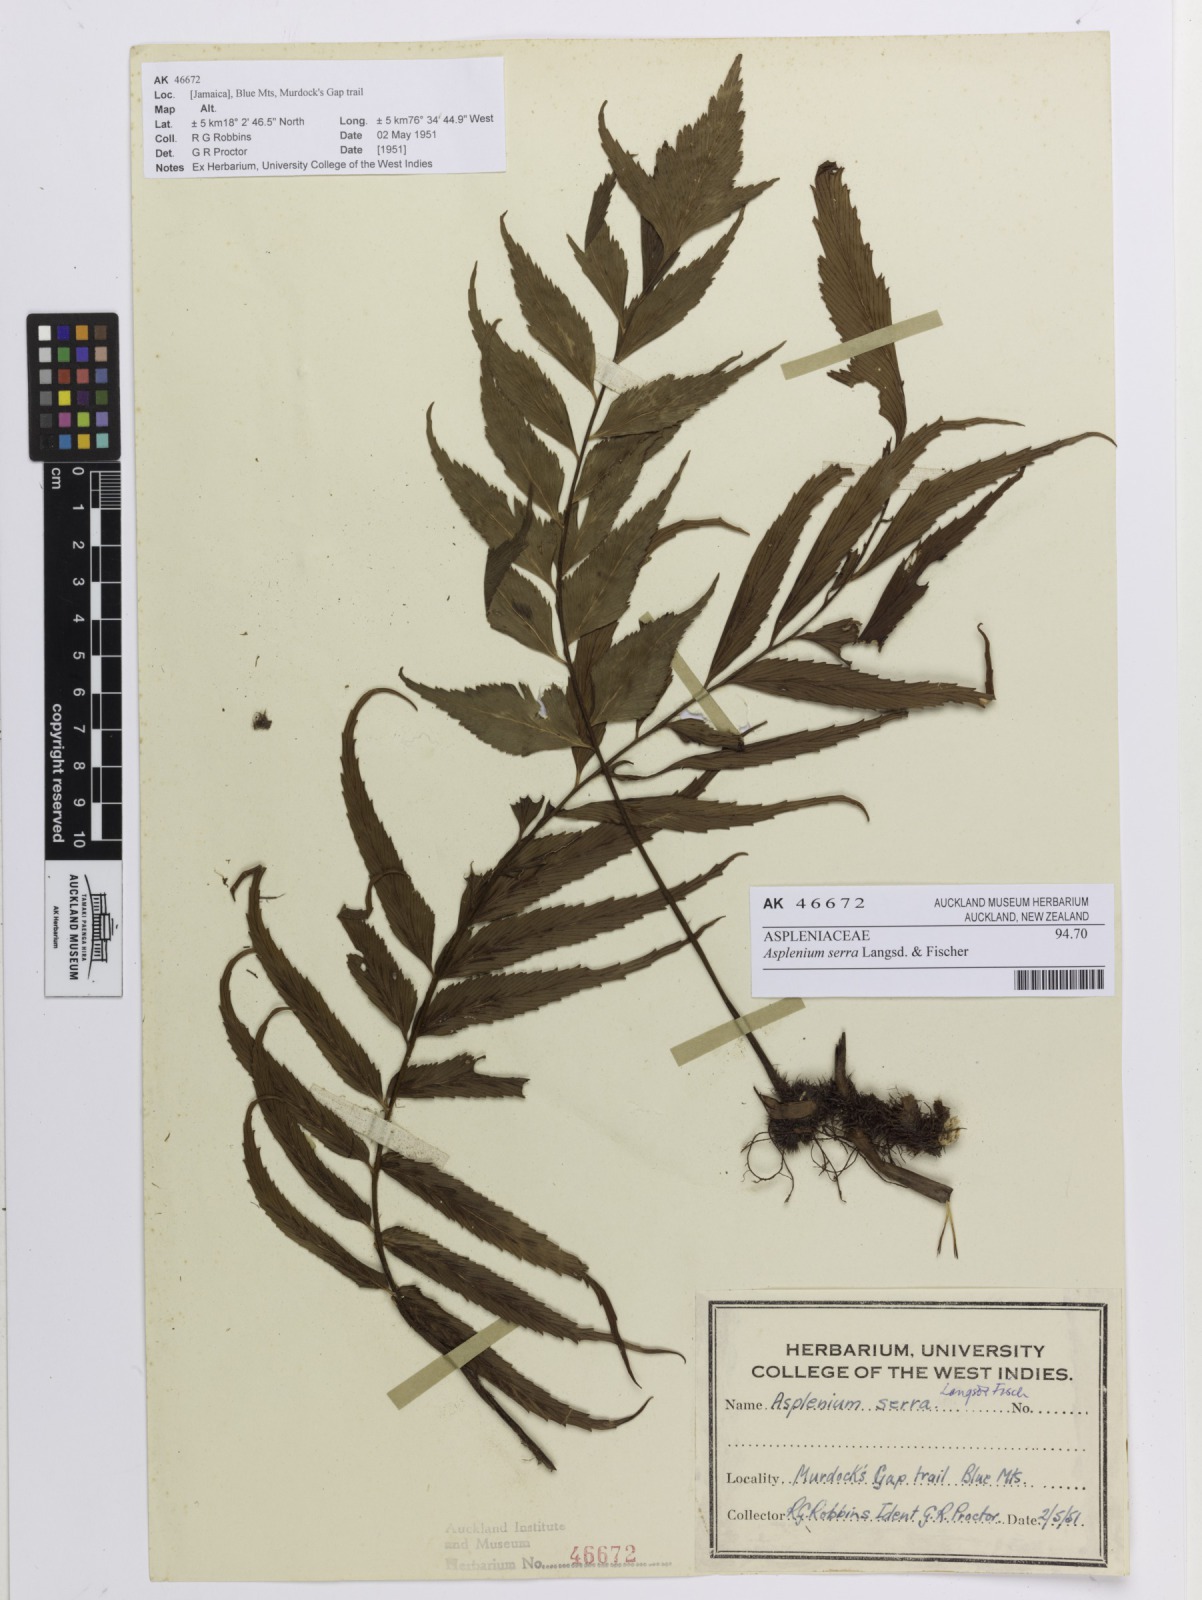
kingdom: Plantae
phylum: Tracheophyta
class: Polypodiopsida
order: Polypodiales
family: Aspleniaceae
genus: Asplenium
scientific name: Asplenium serra
